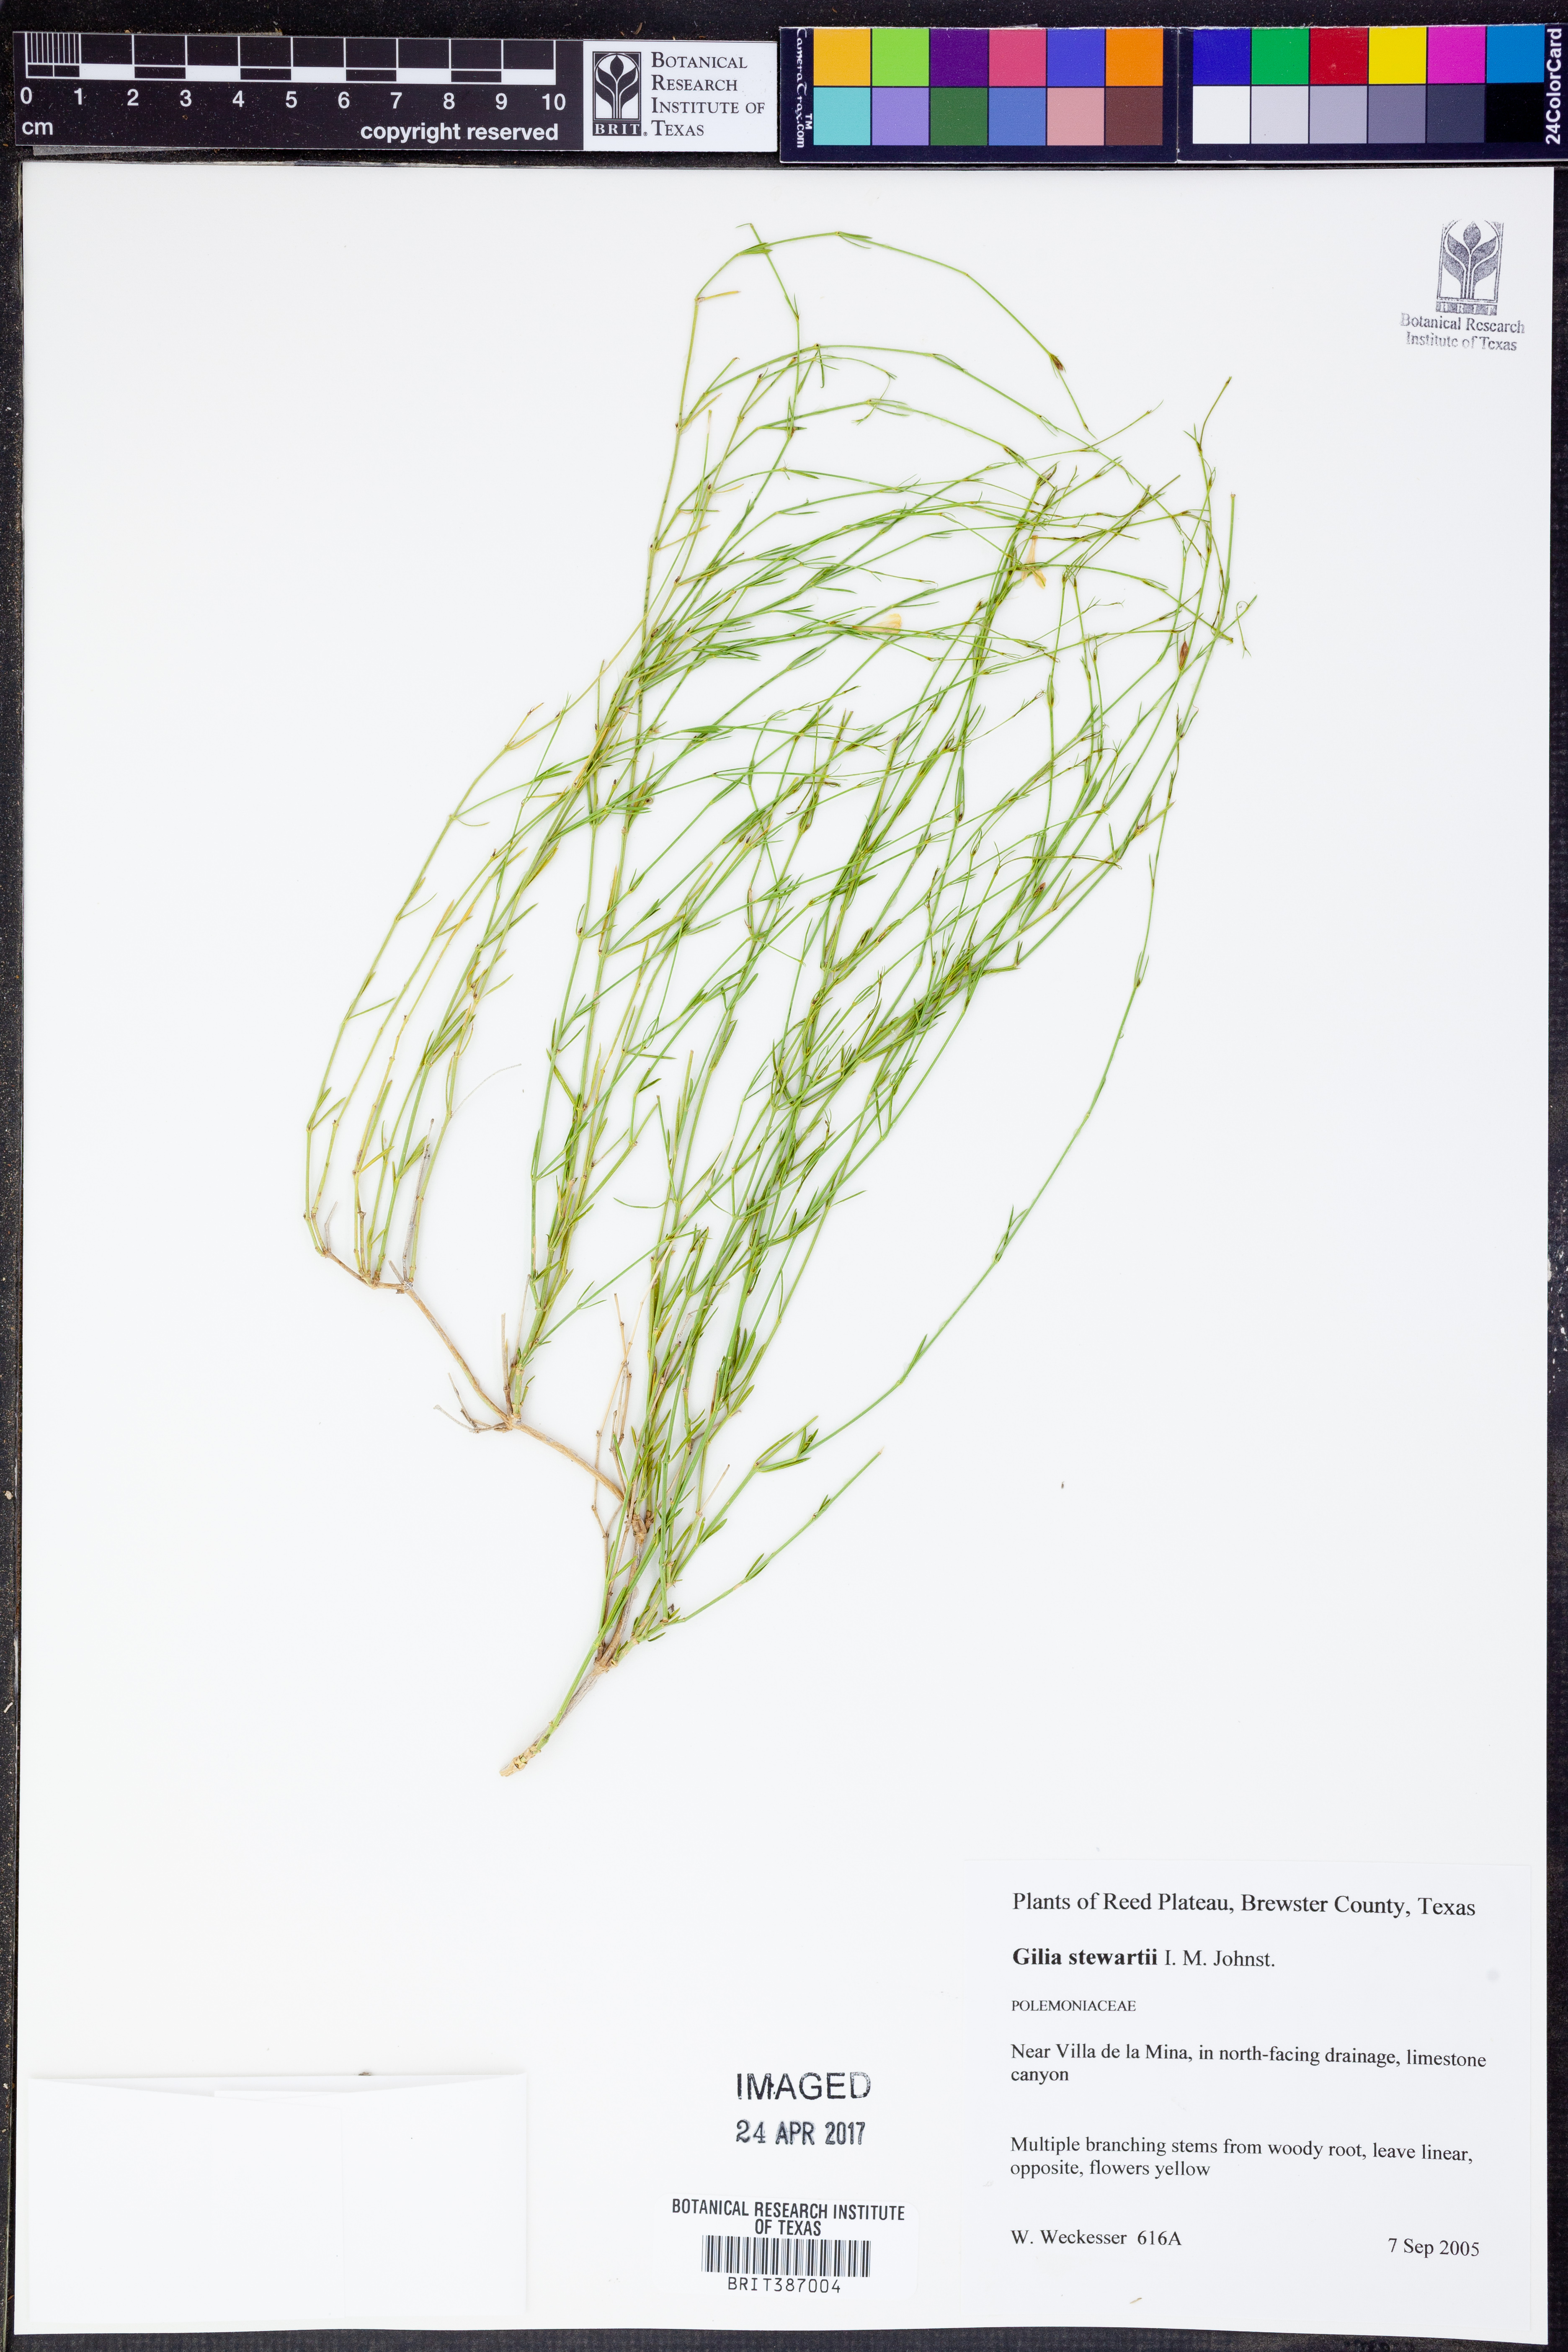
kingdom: Plantae
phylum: Tracheophyta
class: Magnoliopsida
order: Ericales
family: Polemoniaceae
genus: Giliastrum
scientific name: Giliastrum stewartii
